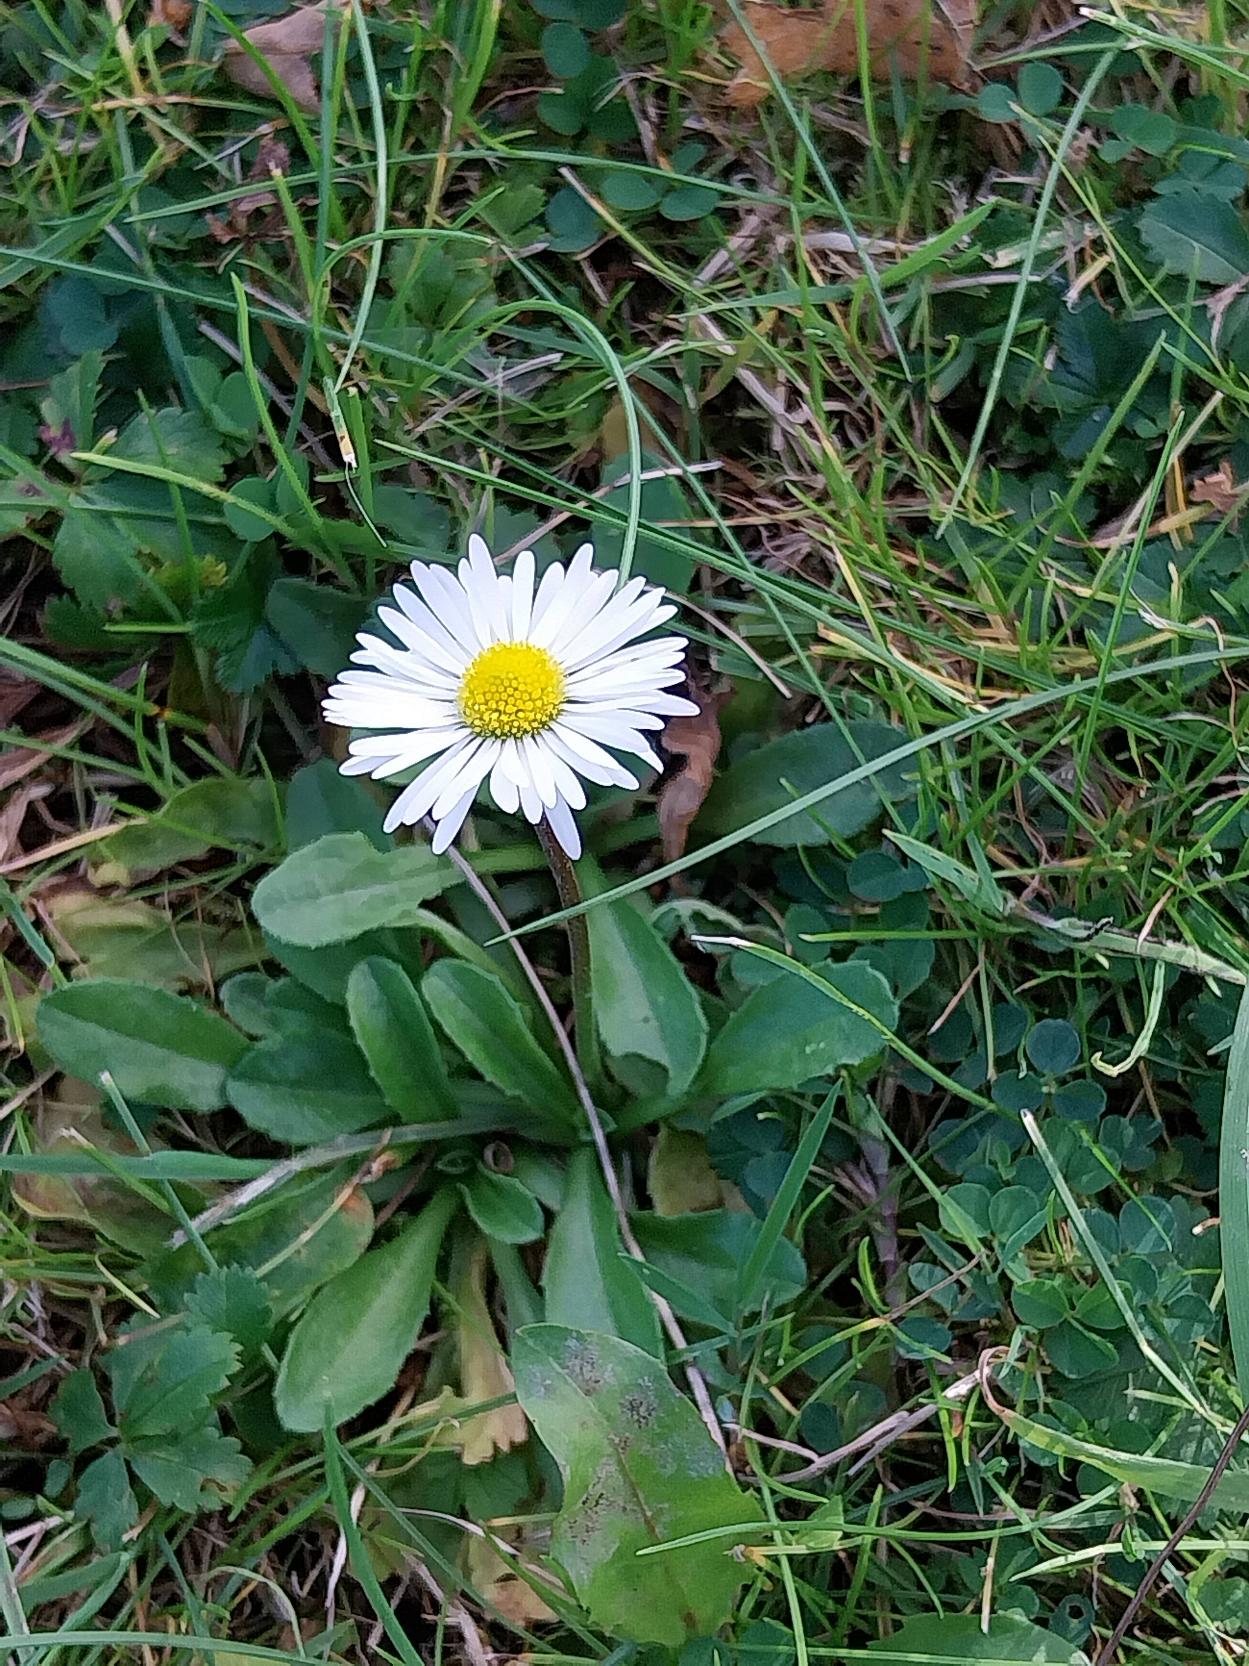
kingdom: Plantae
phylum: Tracheophyta
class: Magnoliopsida
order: Asterales
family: Asteraceae
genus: Bellis
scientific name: Bellis perennis
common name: Tusindfryd
